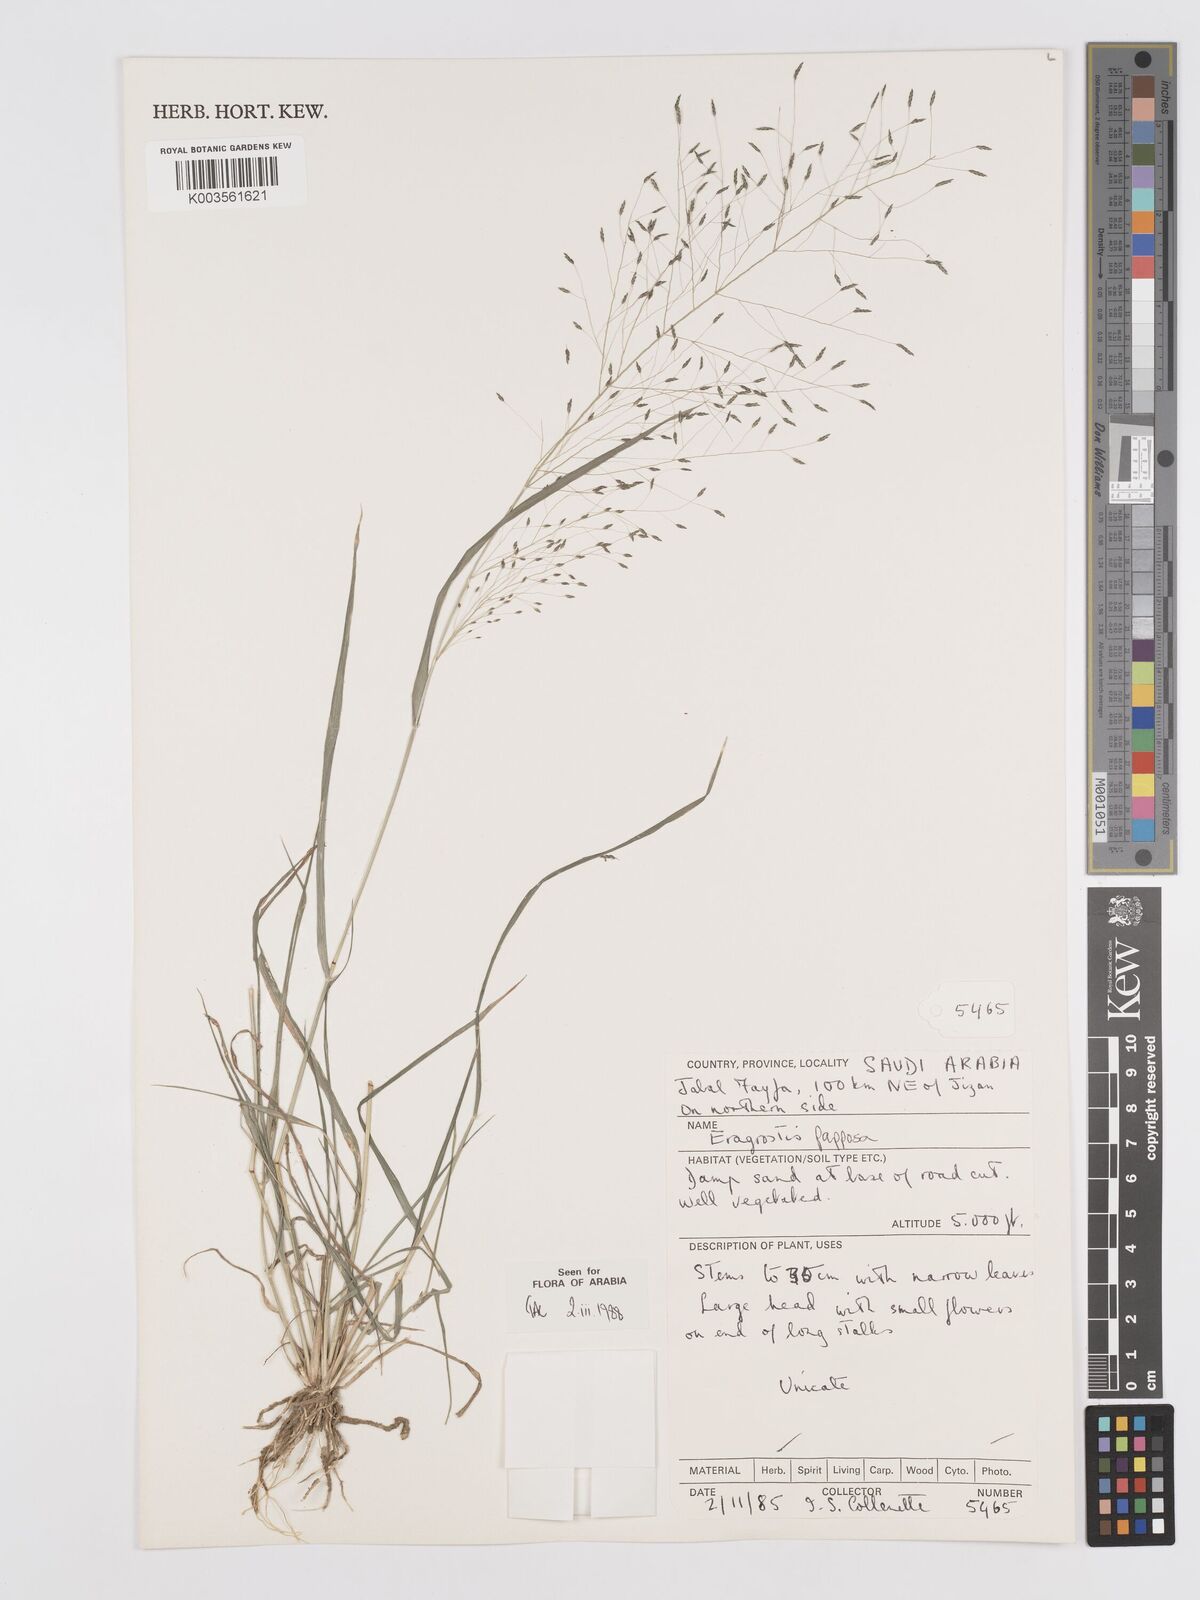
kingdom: Plantae
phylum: Tracheophyta
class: Liliopsida
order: Poales
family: Poaceae
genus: Eragrostis
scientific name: Eragrostis papposa
